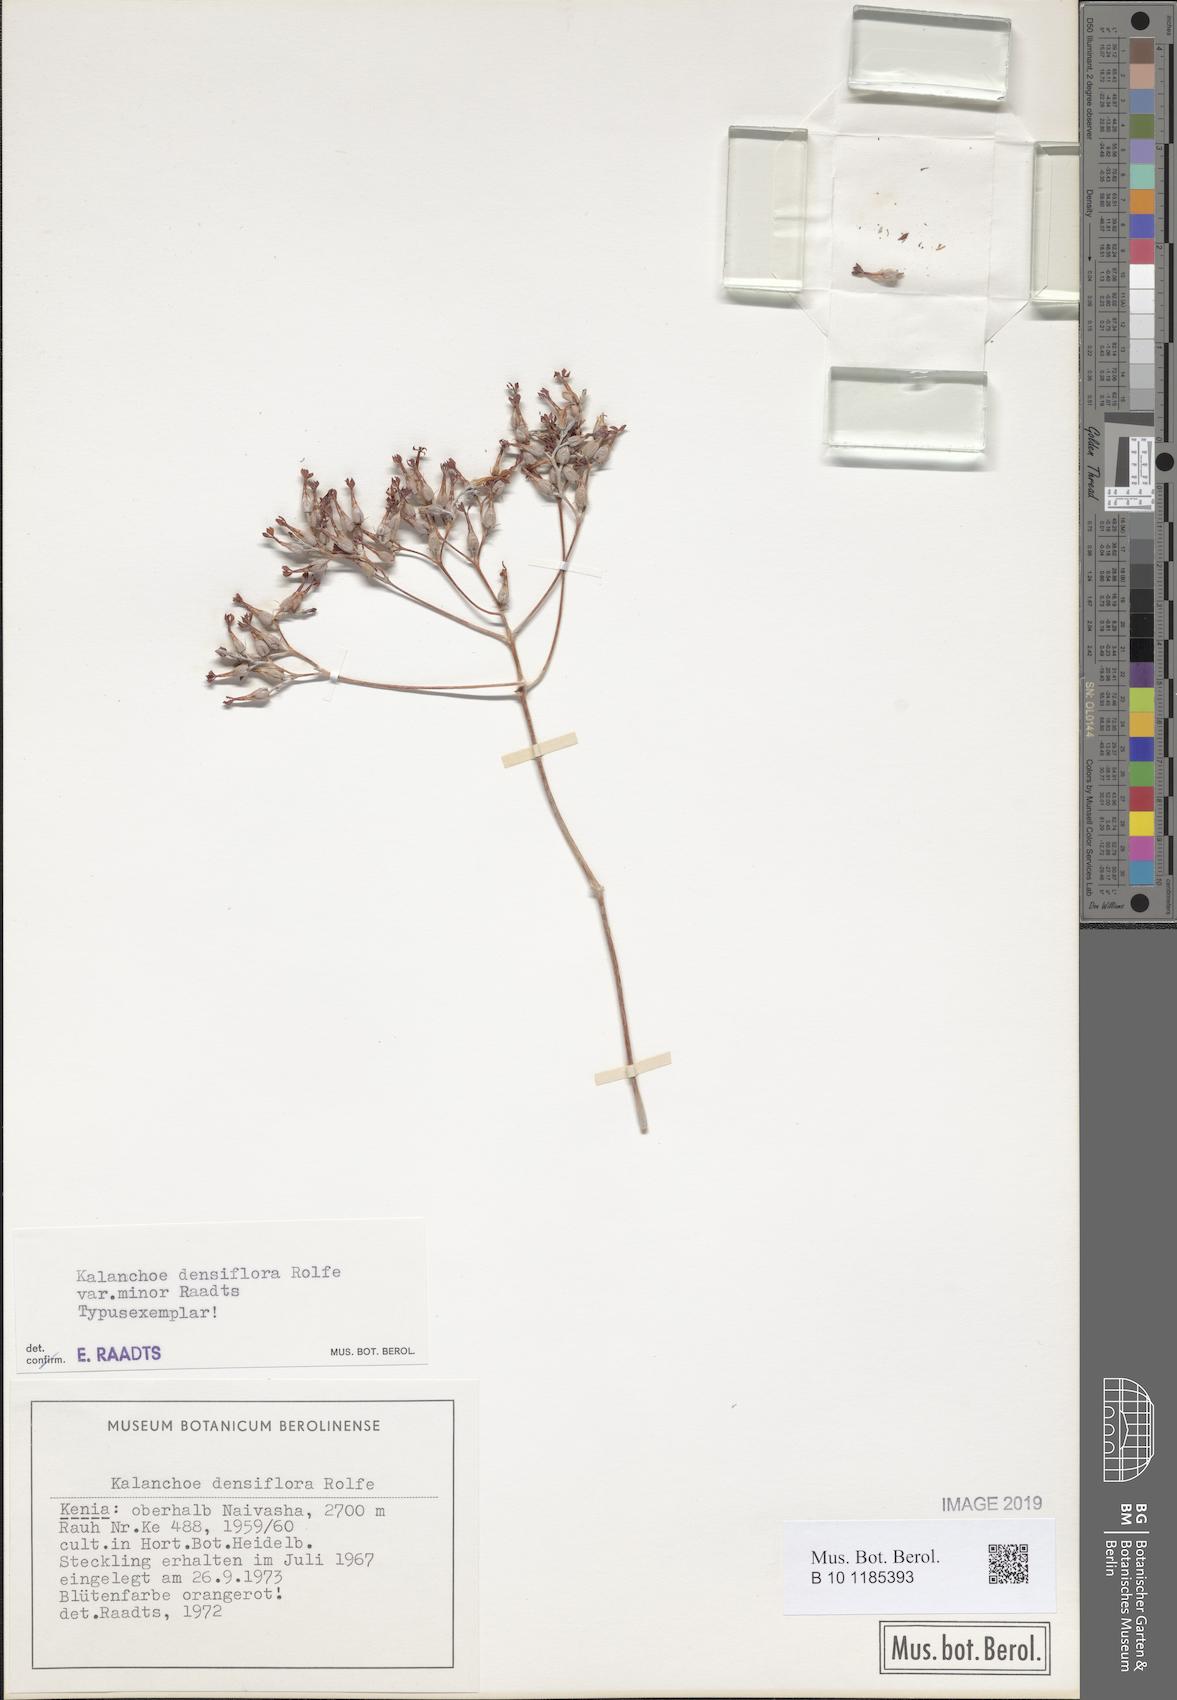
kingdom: Plantae
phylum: Tracheophyta
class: Magnoliopsida
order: Saxifragales
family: Crassulaceae
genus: Kalanchoe
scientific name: Kalanchoe densiflora
